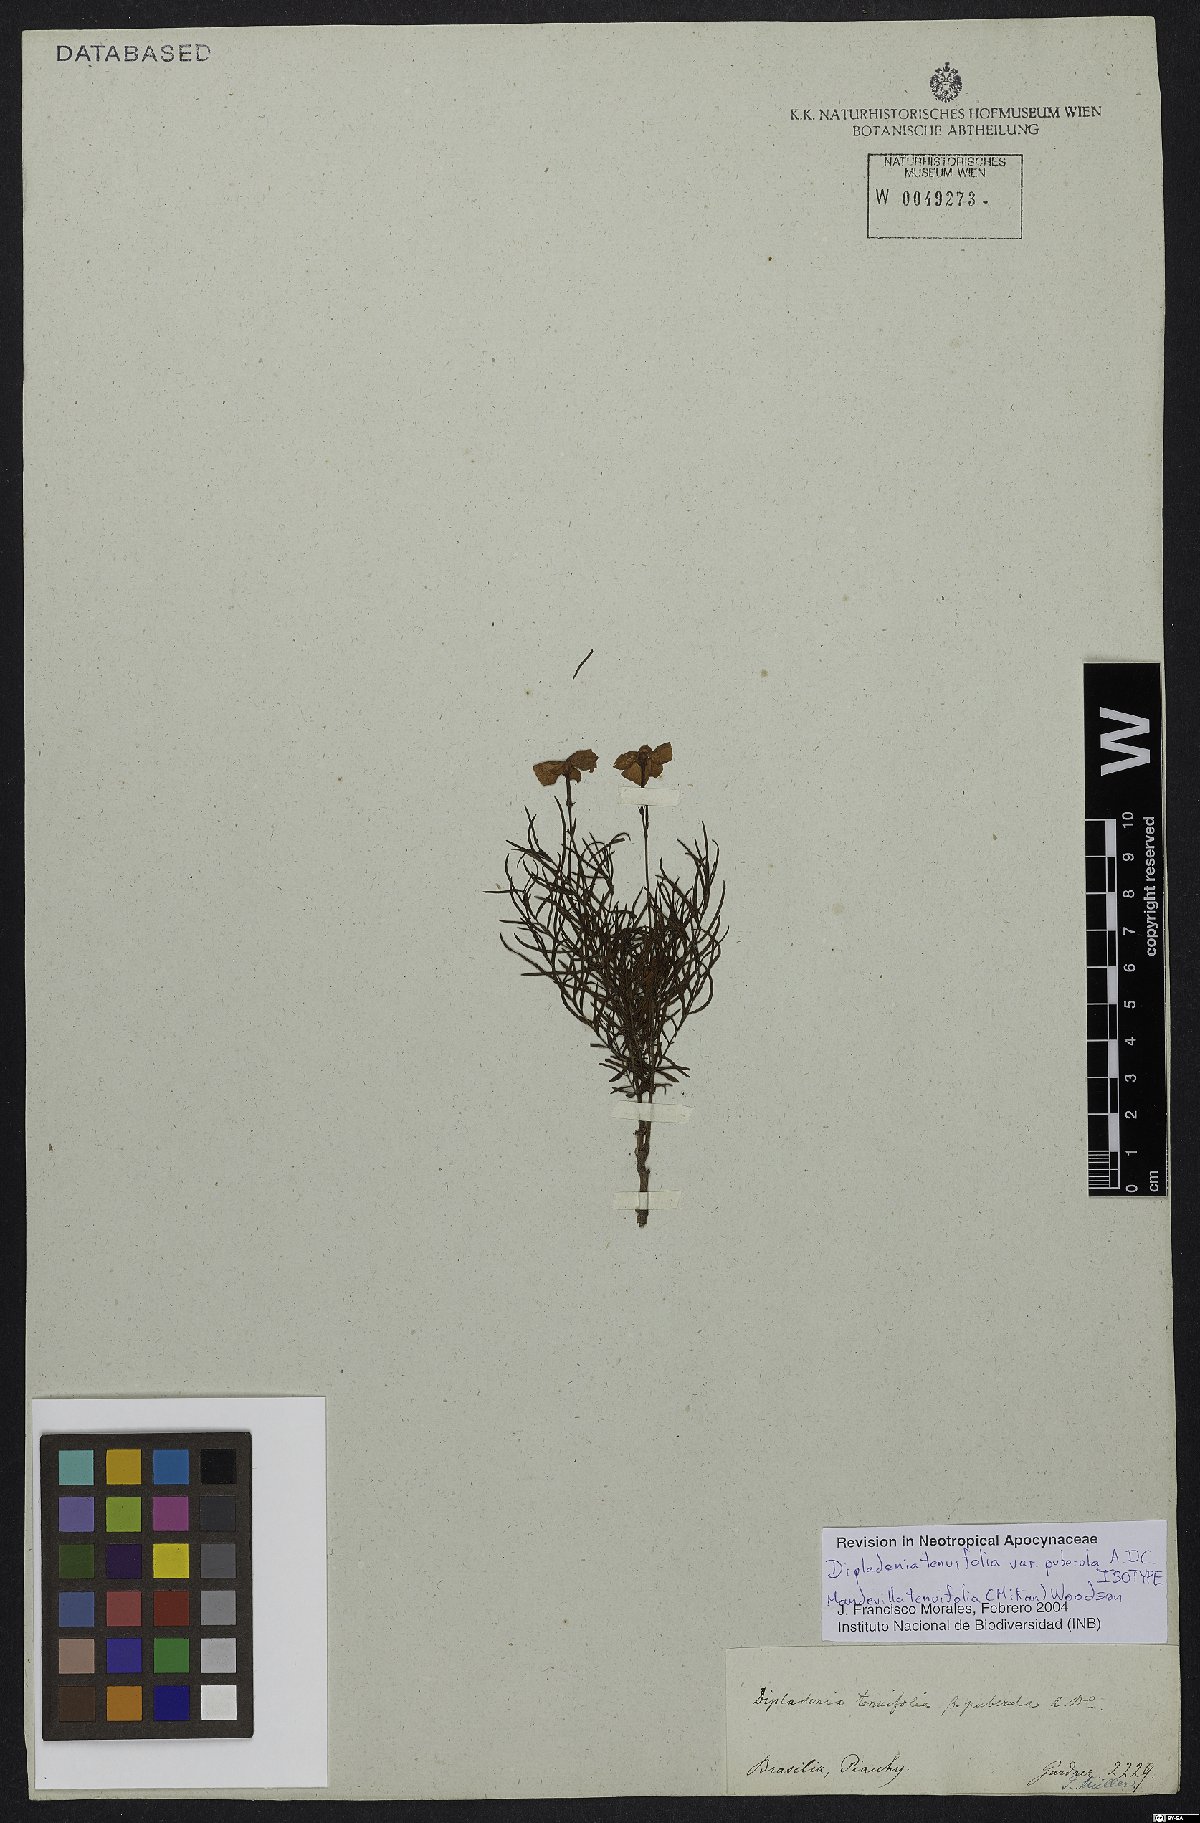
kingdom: Plantae
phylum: Tracheophyta
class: Magnoliopsida
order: Gentianales
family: Apocynaceae
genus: Mandevilla
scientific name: Mandevilla tenuifolia
